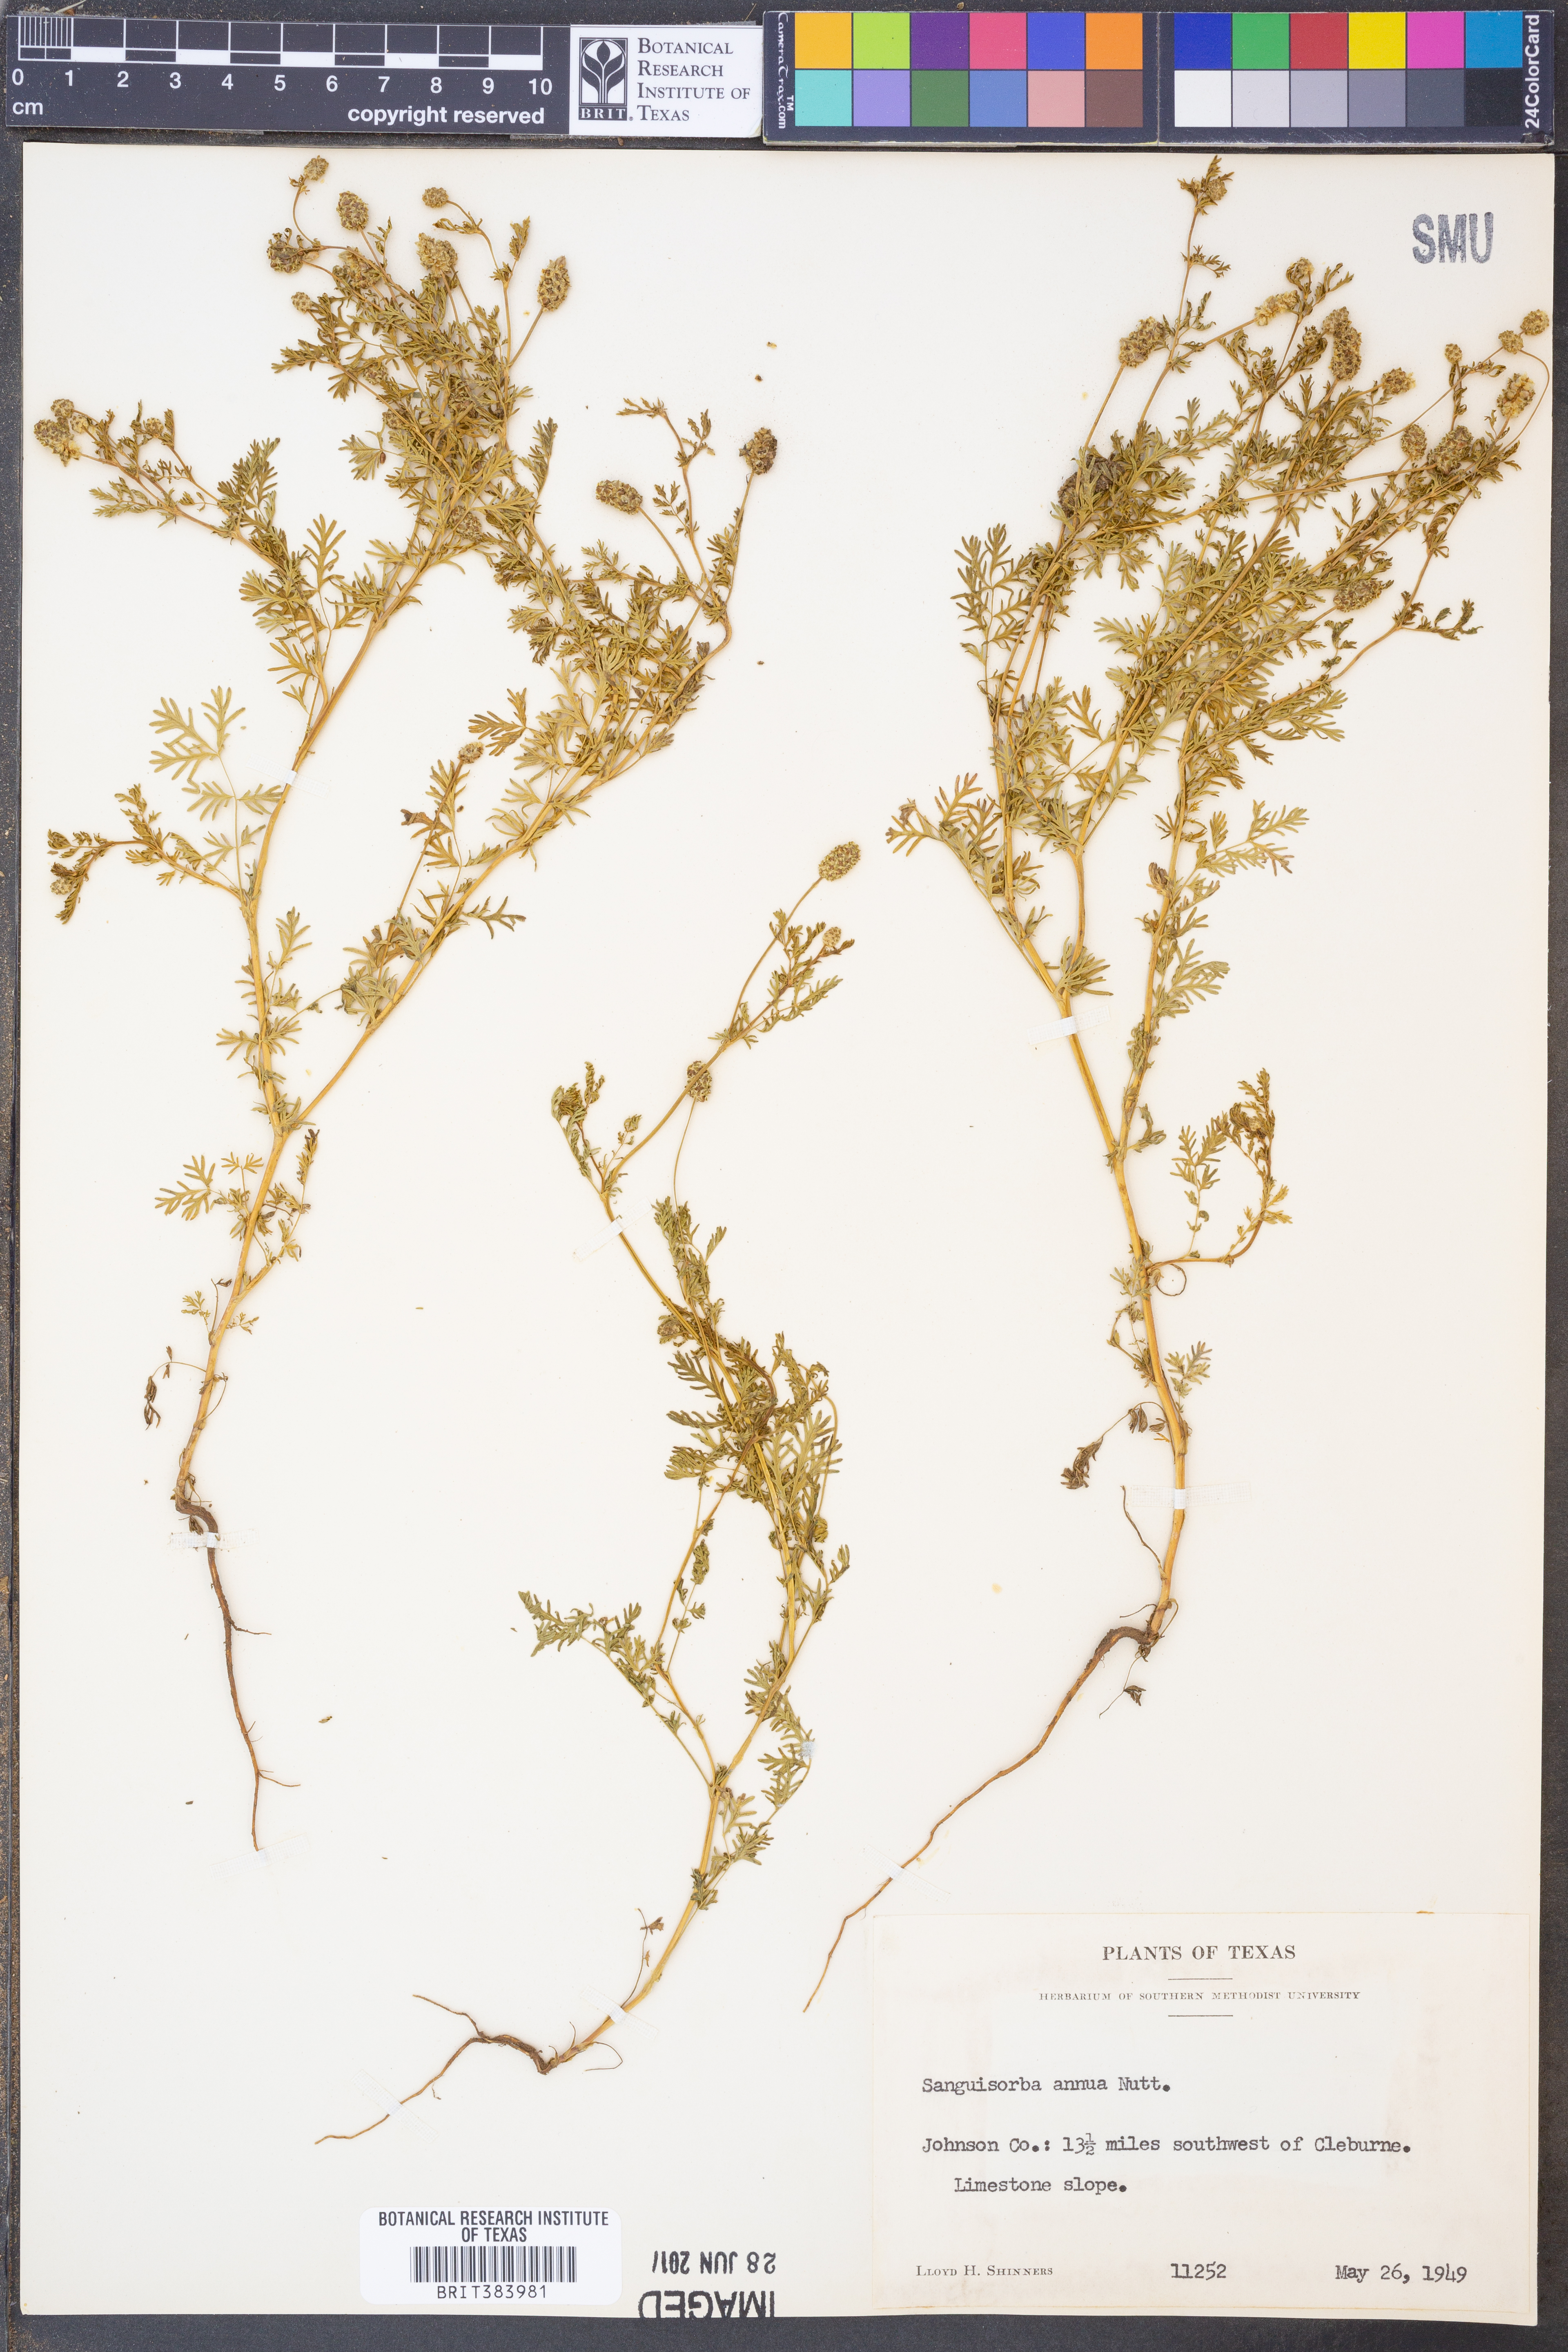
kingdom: Plantae
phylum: Tracheophyta
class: Magnoliopsida
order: Rosales
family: Rosaceae
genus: Poteridium
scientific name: Poteridium annuum
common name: Annual burnet
